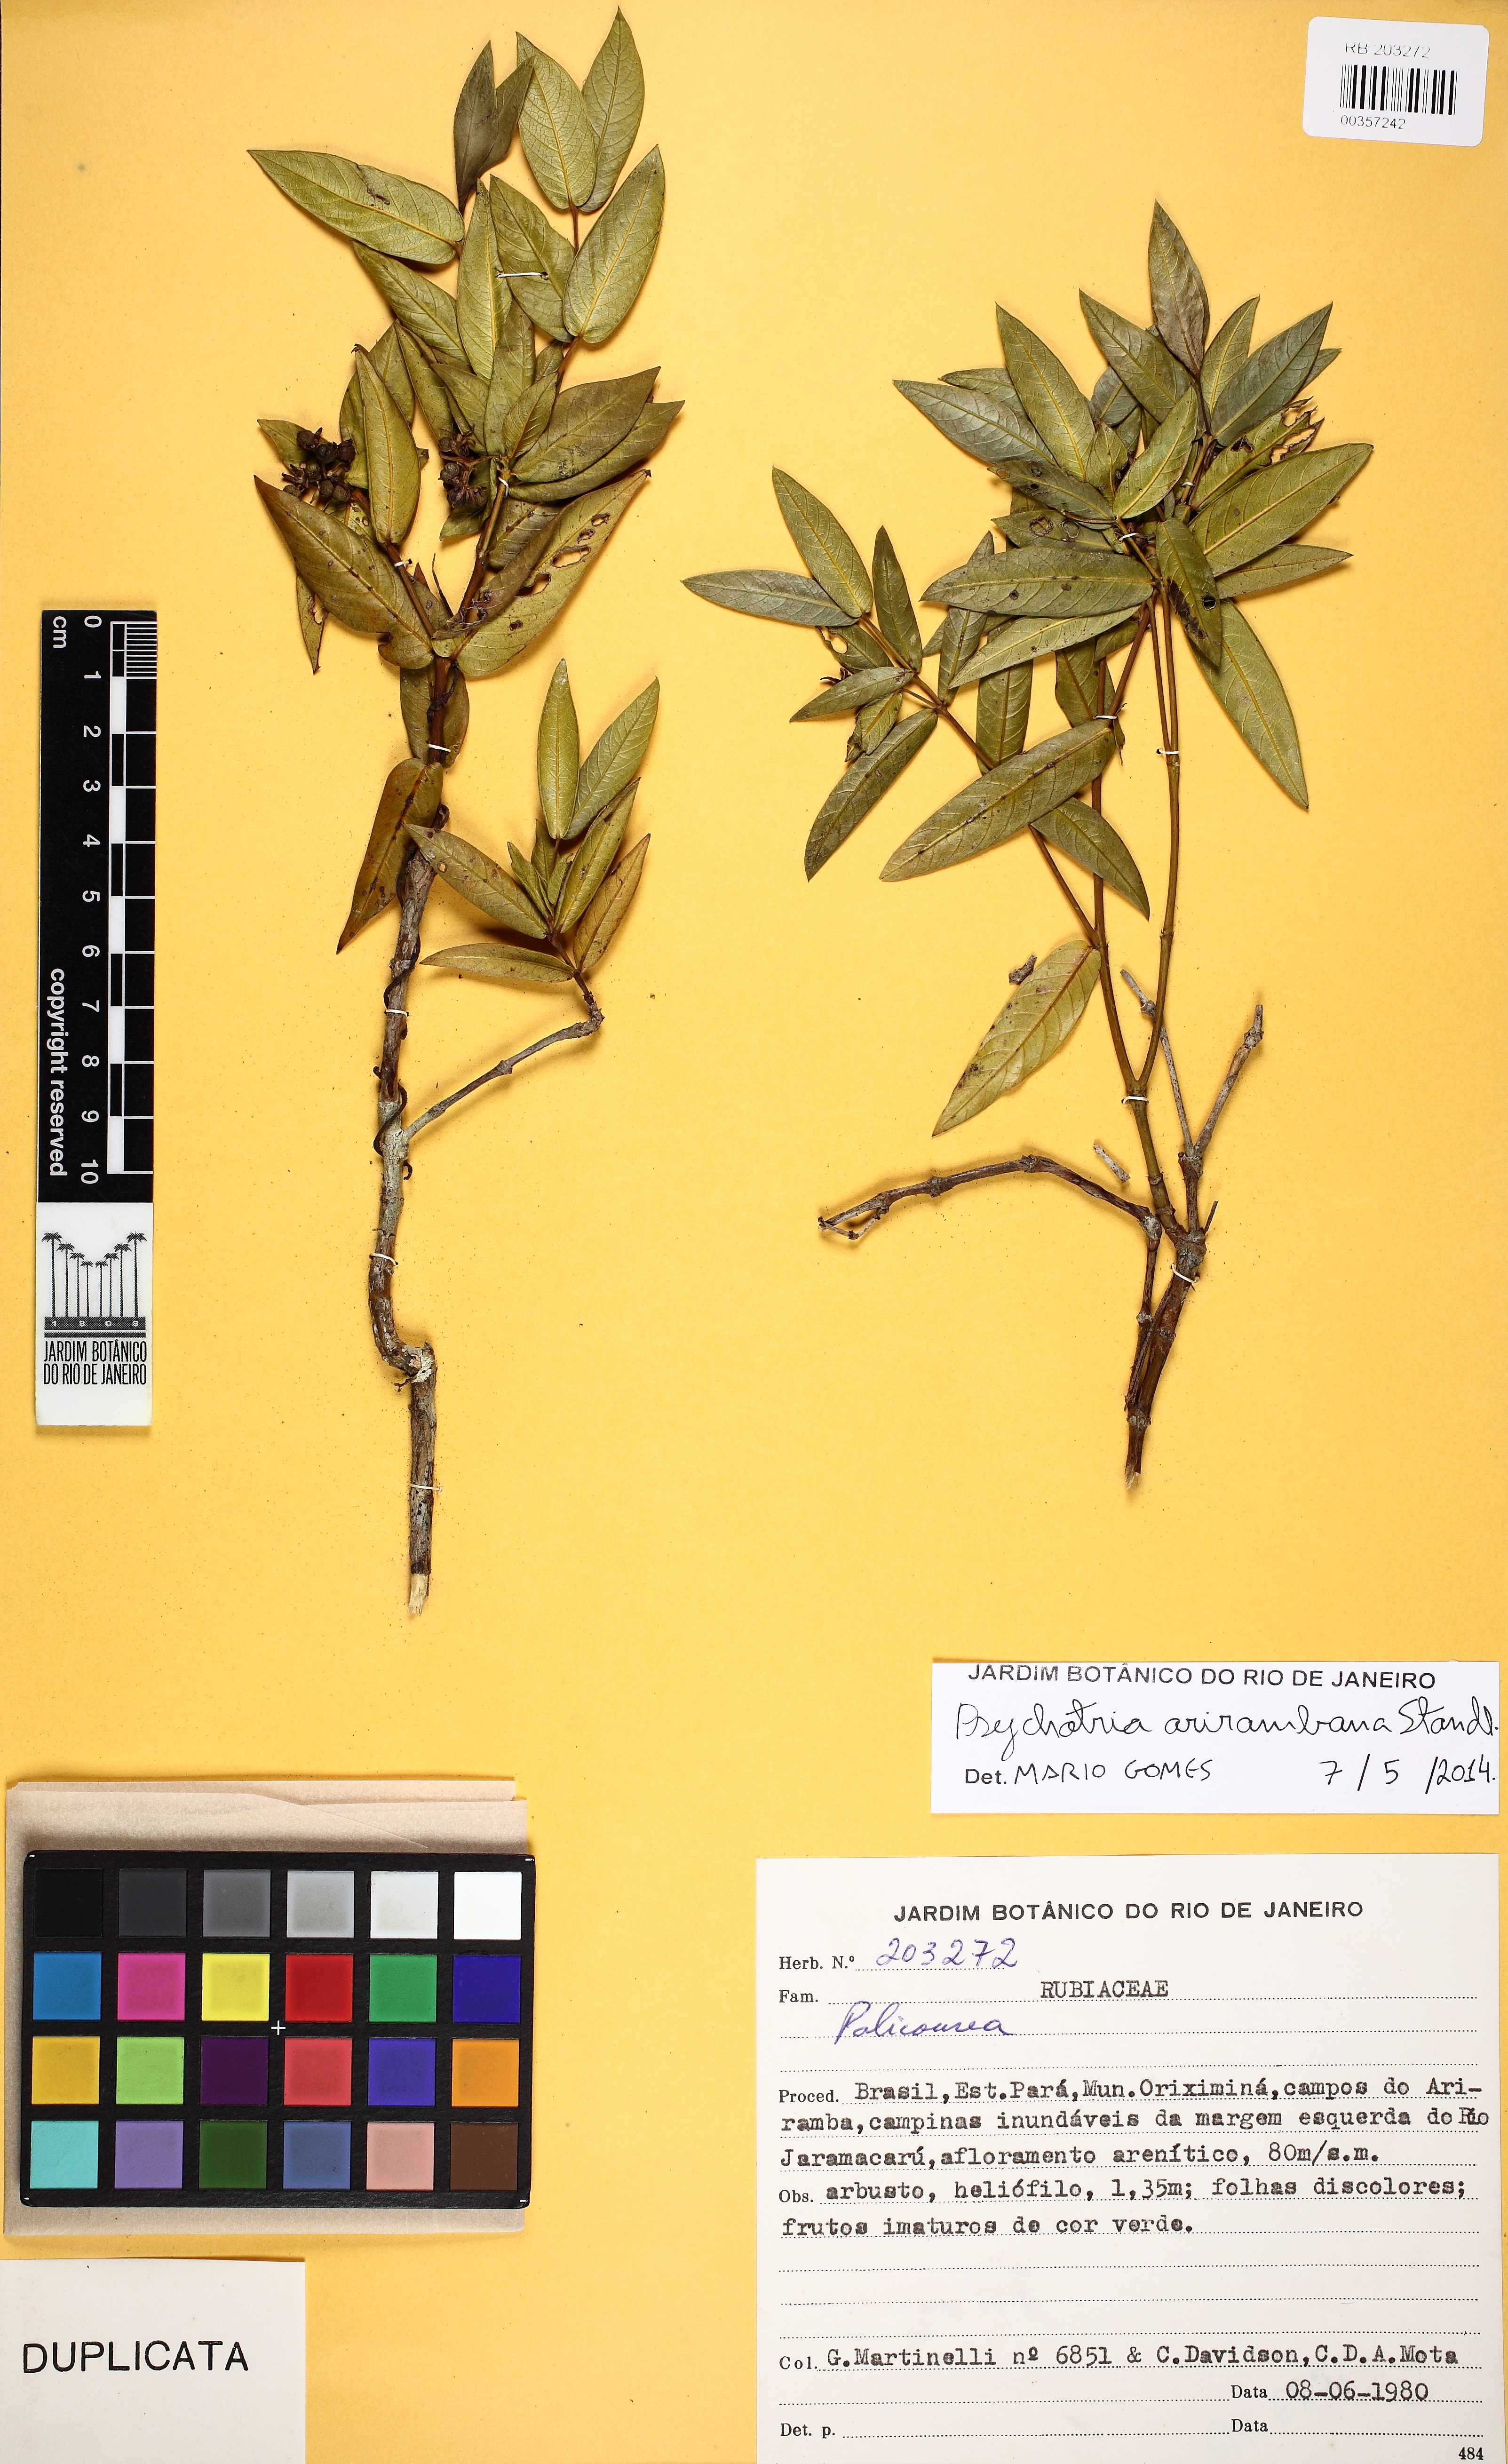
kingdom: Plantae
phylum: Tracheophyta
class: Magnoliopsida
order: Gentianales
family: Rubiaceae
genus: Psychotria
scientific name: Psychotria arirambana
